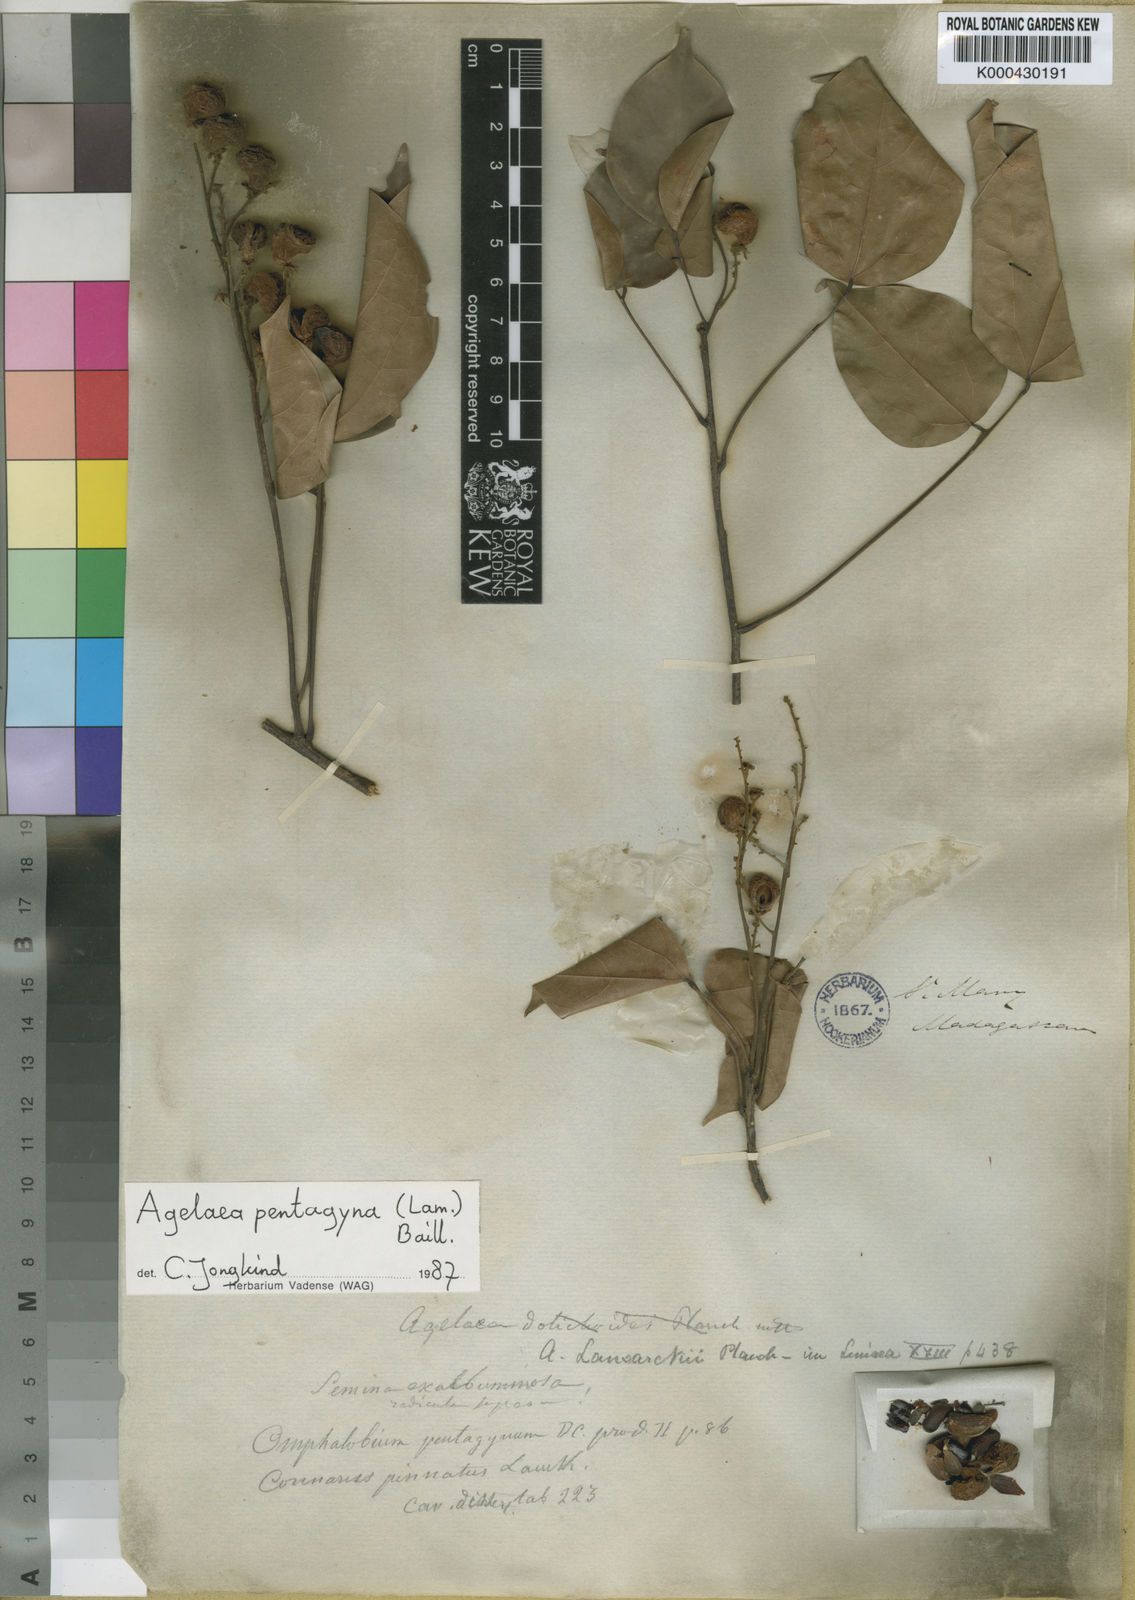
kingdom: Plantae
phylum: Tracheophyta
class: Magnoliopsida
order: Oxalidales
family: Connaraceae
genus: Agelaea
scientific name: Agelaea pentagyna
